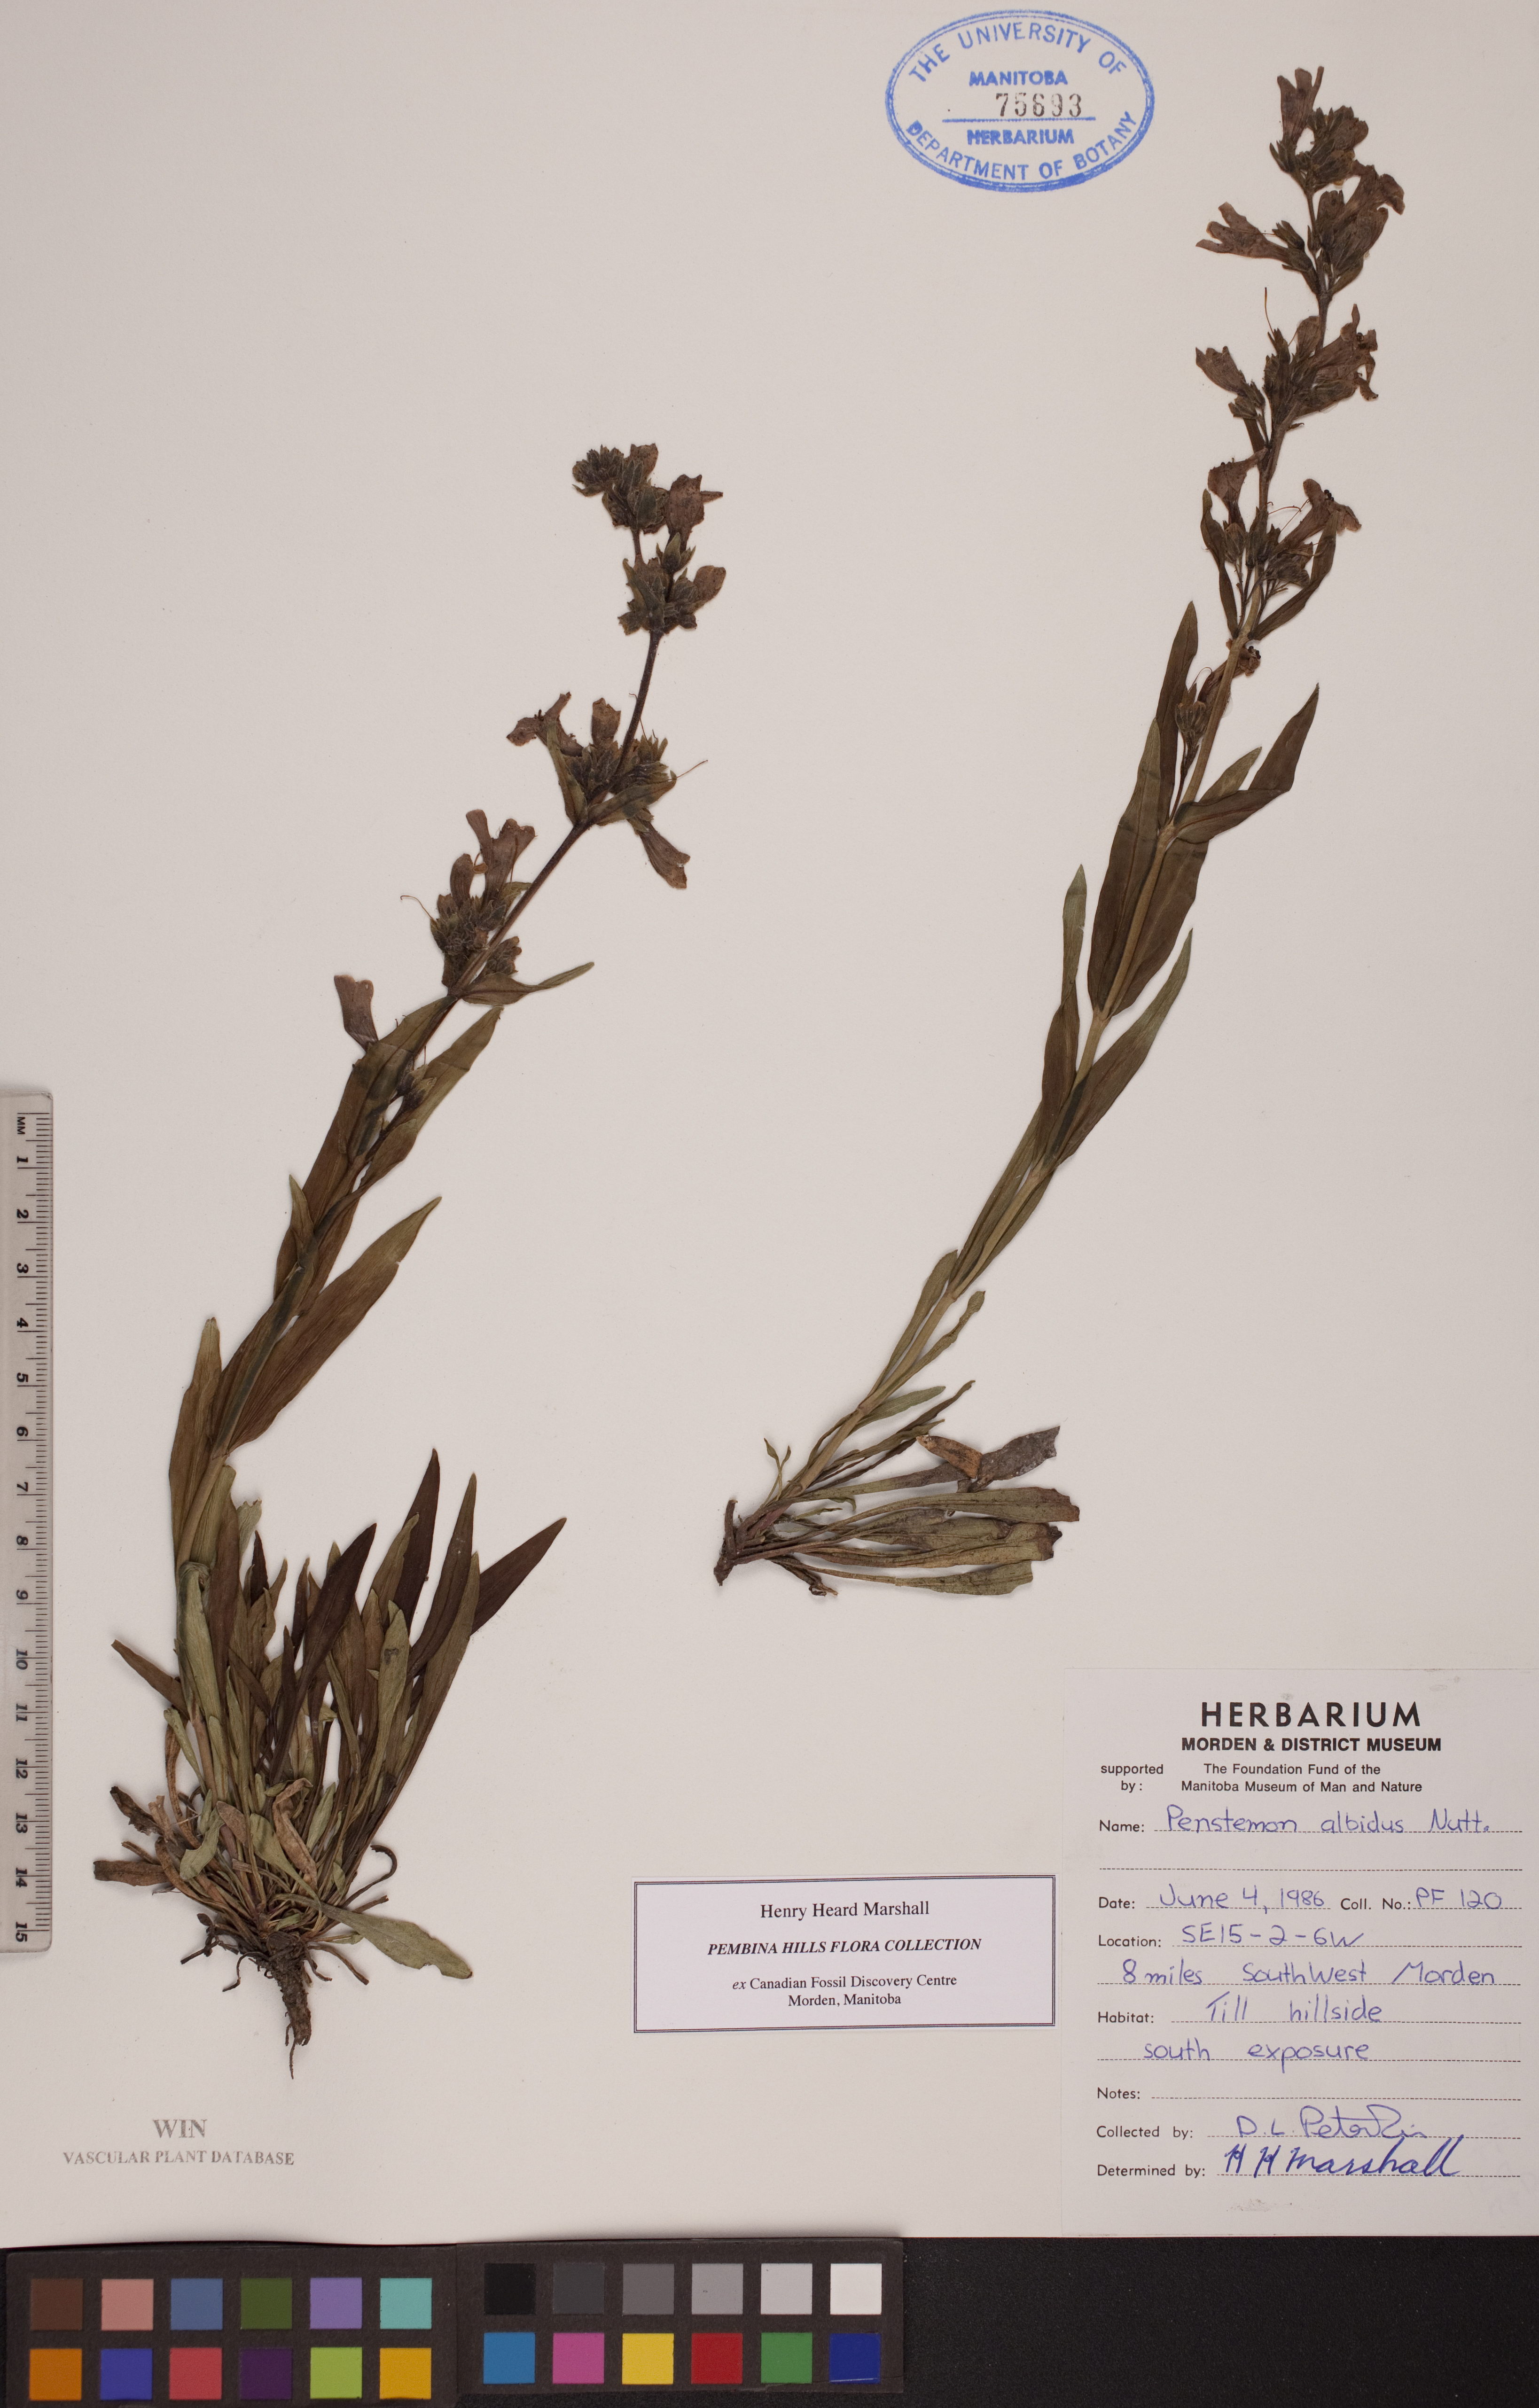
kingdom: Plantae
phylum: Tracheophyta
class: Magnoliopsida
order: Lamiales
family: Plantaginaceae
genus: Penstemon
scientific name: Penstemon albidus
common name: White beardtongue
